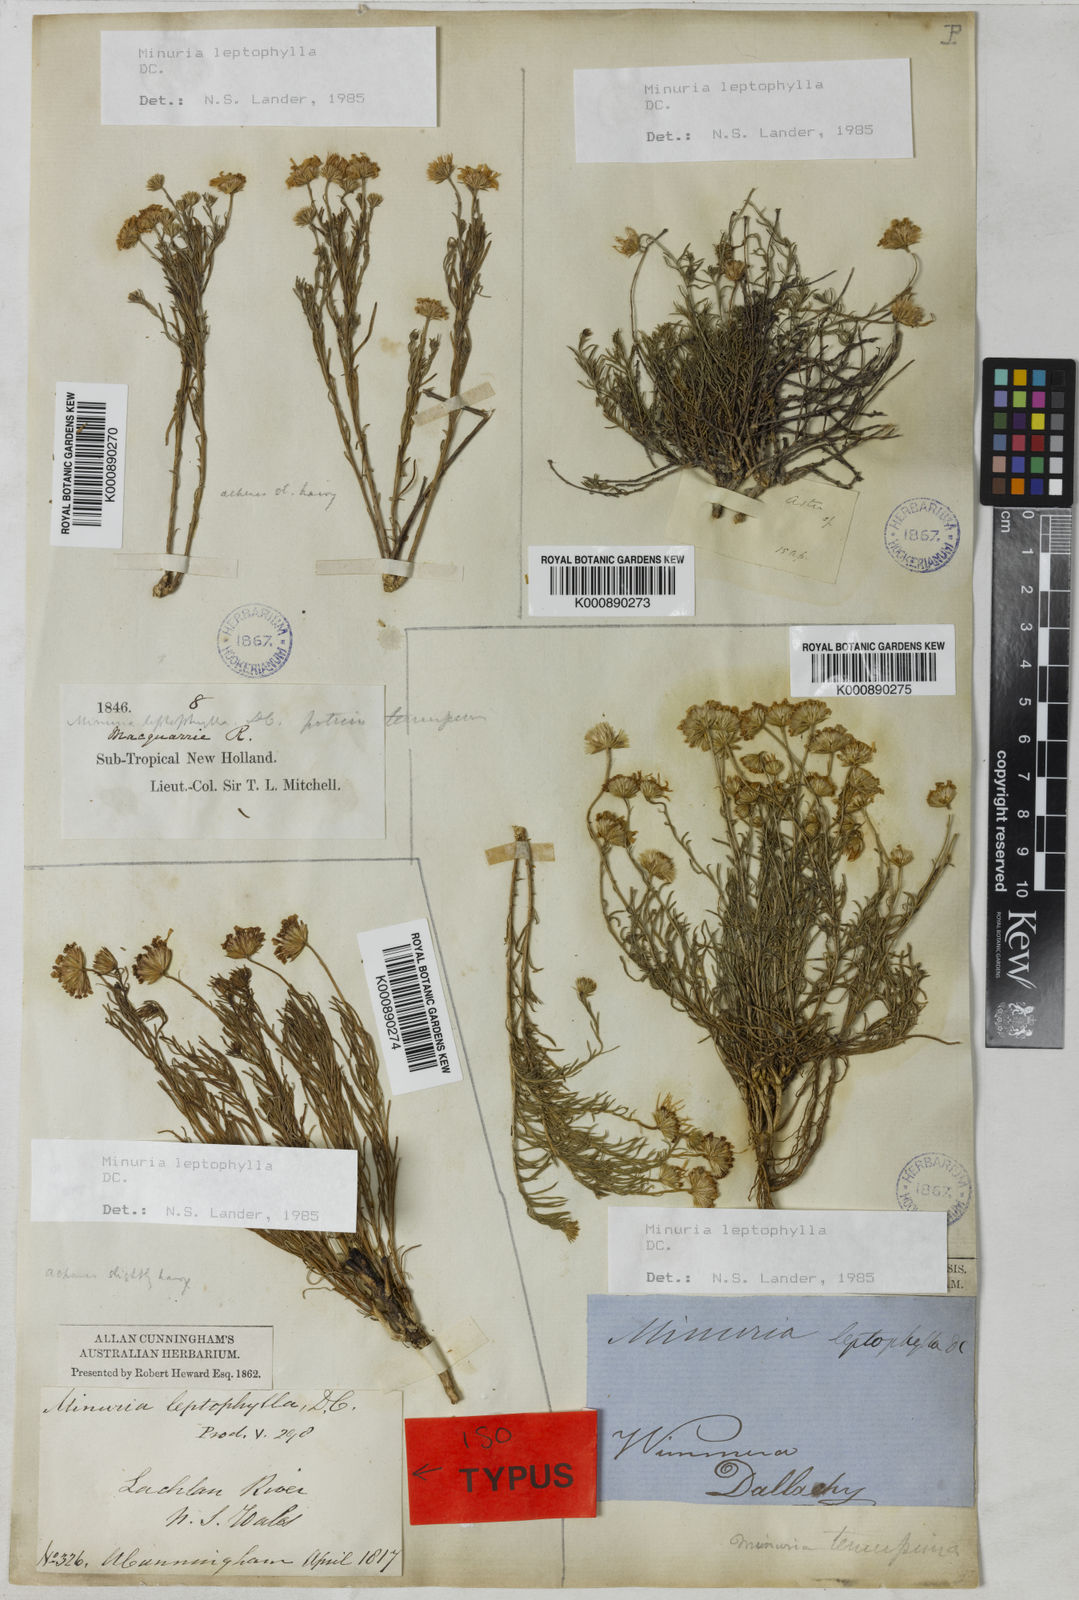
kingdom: Plantae
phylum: Tracheophyta
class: Magnoliopsida
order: Asterales
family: Asteraceae
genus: Minuria
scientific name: Minuria leptophylla
